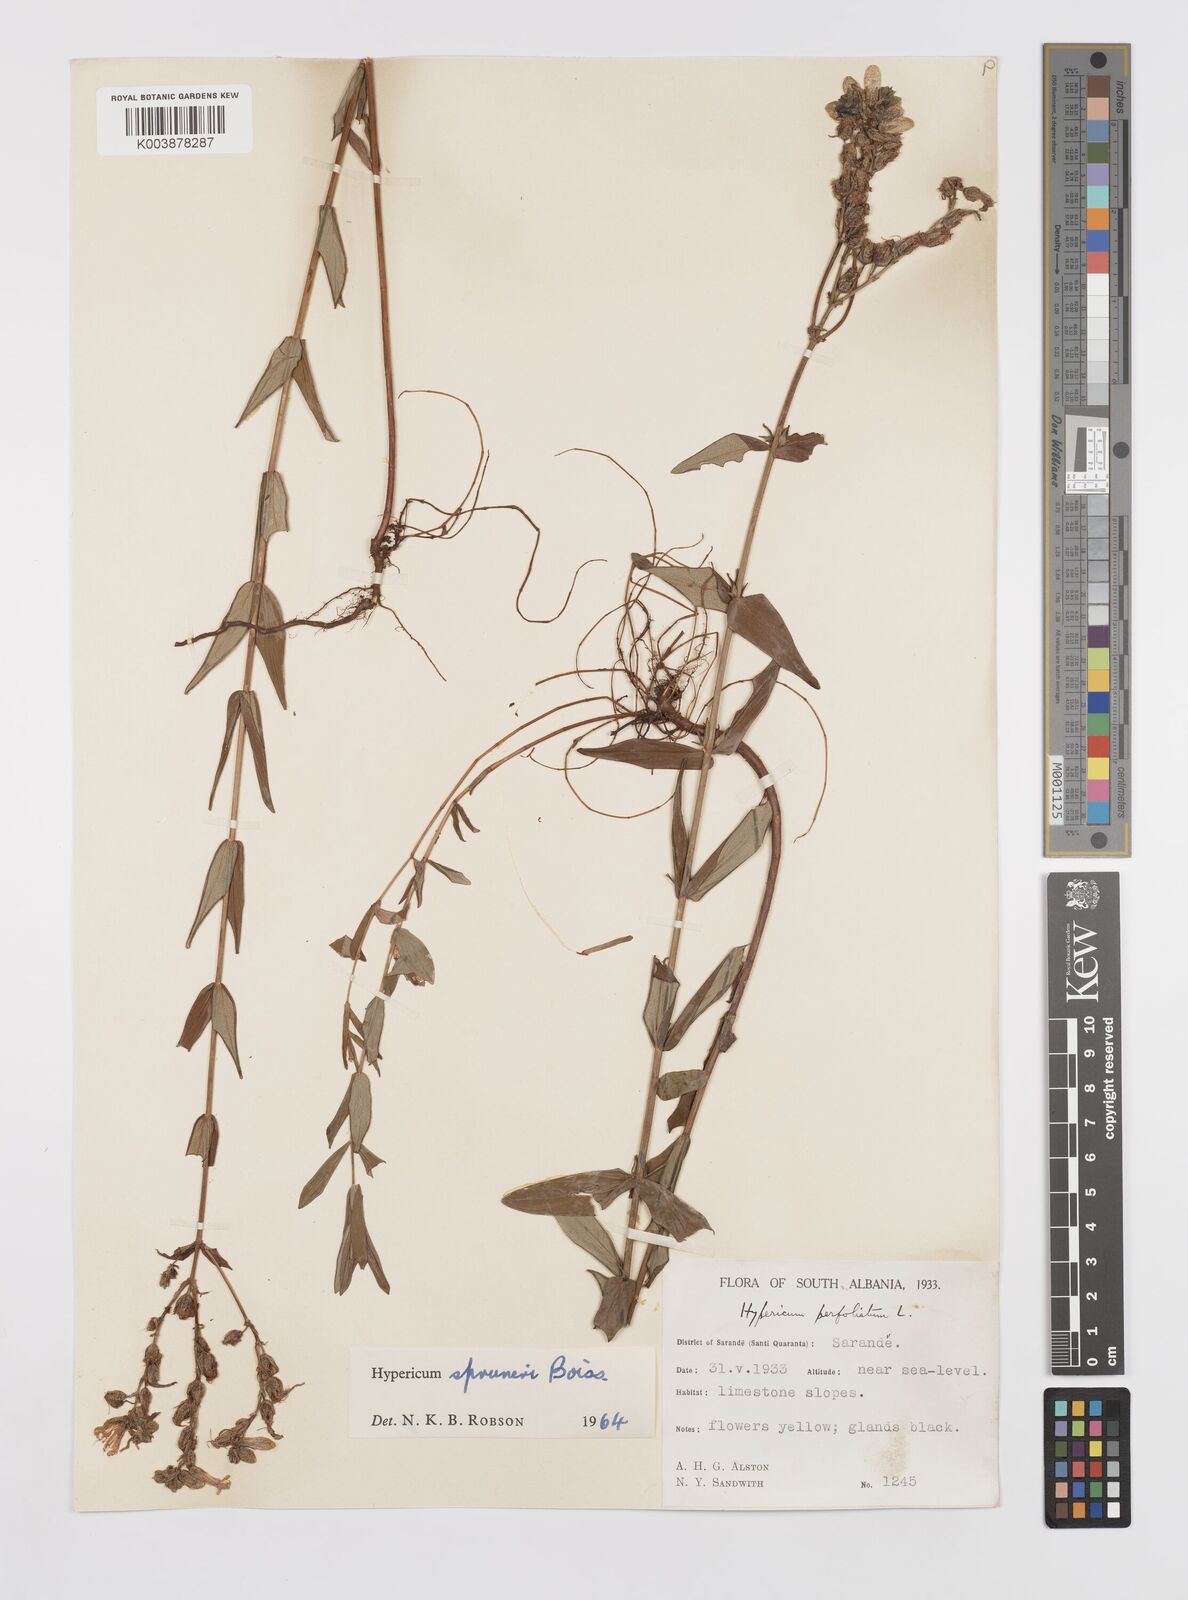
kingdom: Plantae
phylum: Tracheophyta
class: Magnoliopsida
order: Malpighiales
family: Hypericaceae
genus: Hypericum
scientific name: Hypericum spruneri
